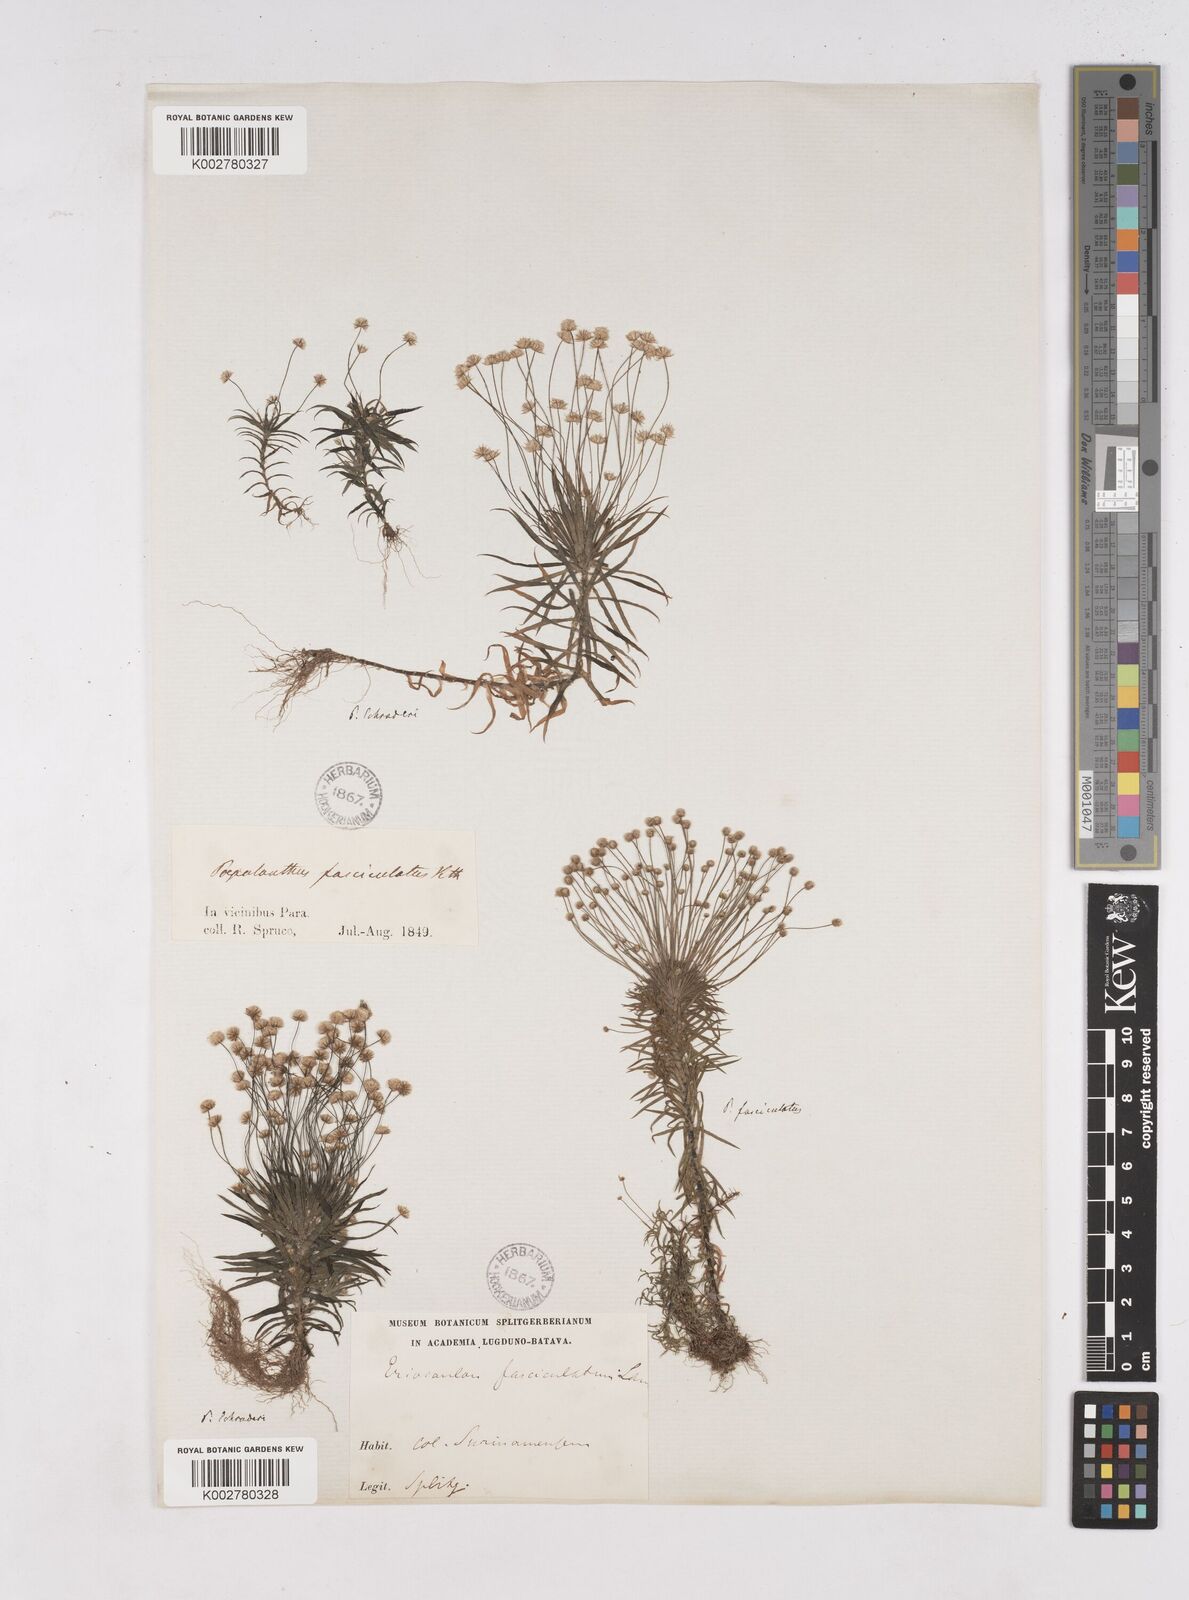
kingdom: Plantae
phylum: Tracheophyta
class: Liliopsida
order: Poales
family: Eriocaulaceae
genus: Paepalanthus
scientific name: Paepalanthus bifidus
